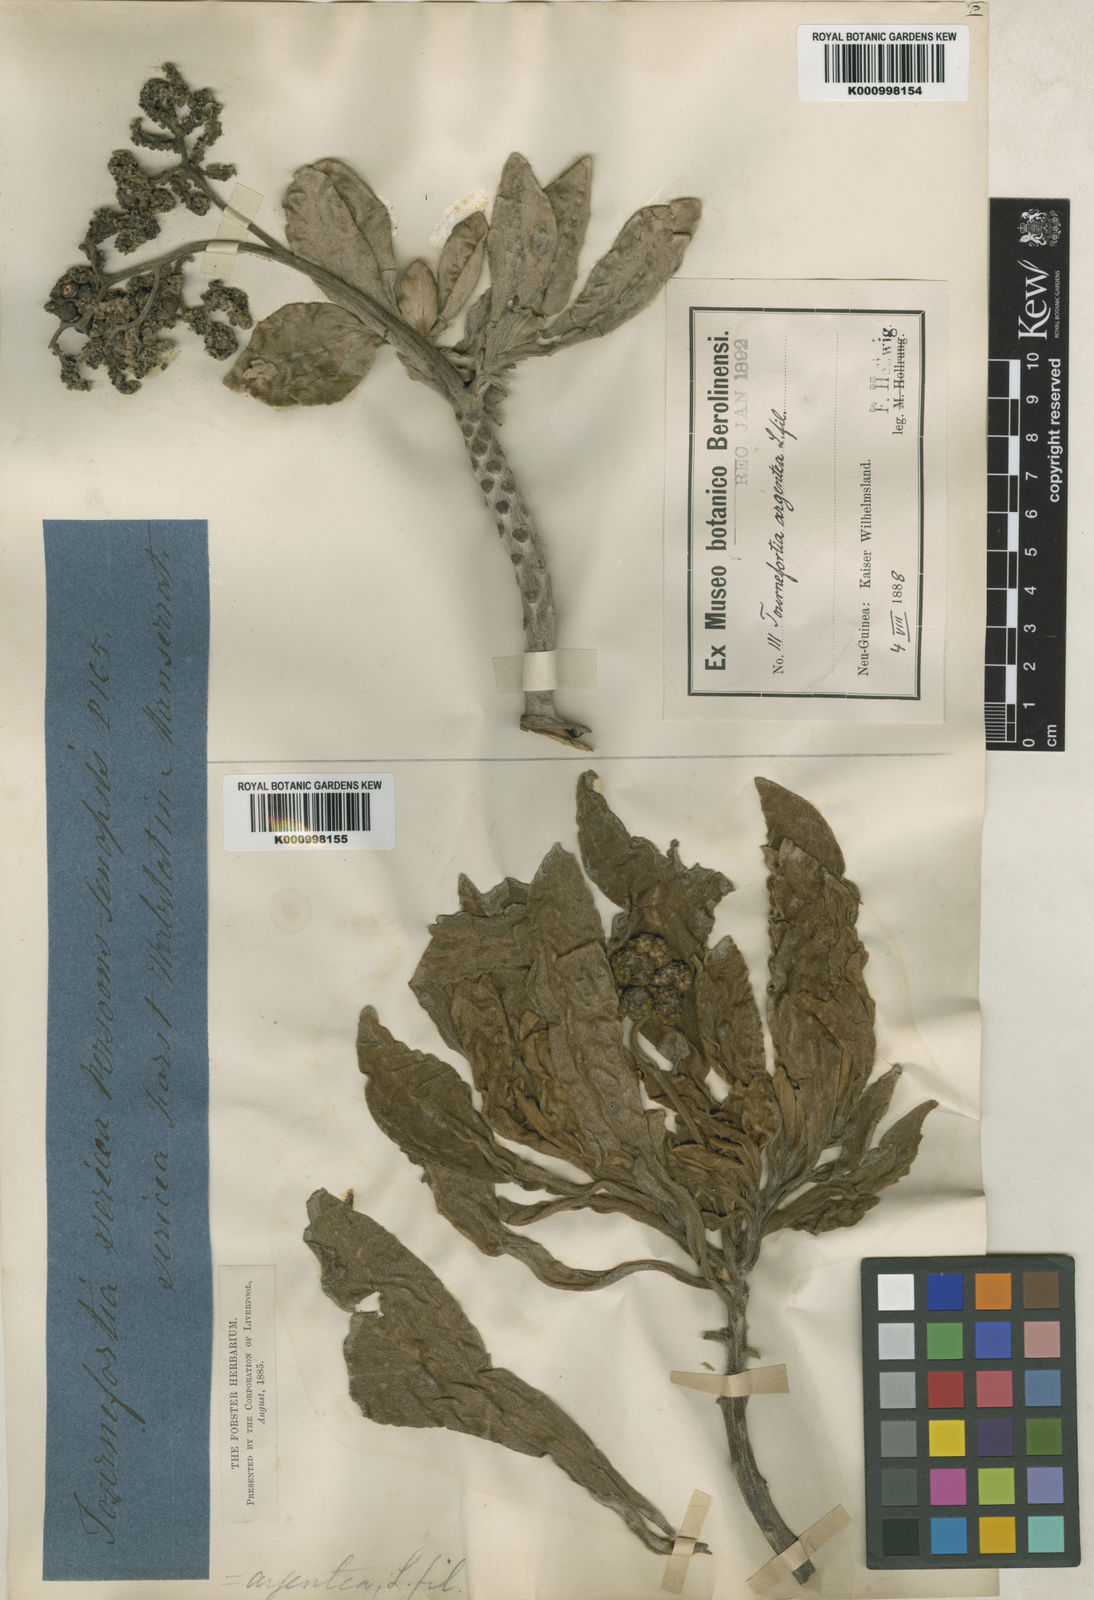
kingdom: Plantae
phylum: Tracheophyta
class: Magnoliopsida
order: Boraginales
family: Heliotropiaceae
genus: Heliotropium
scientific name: Heliotropium velutinum
